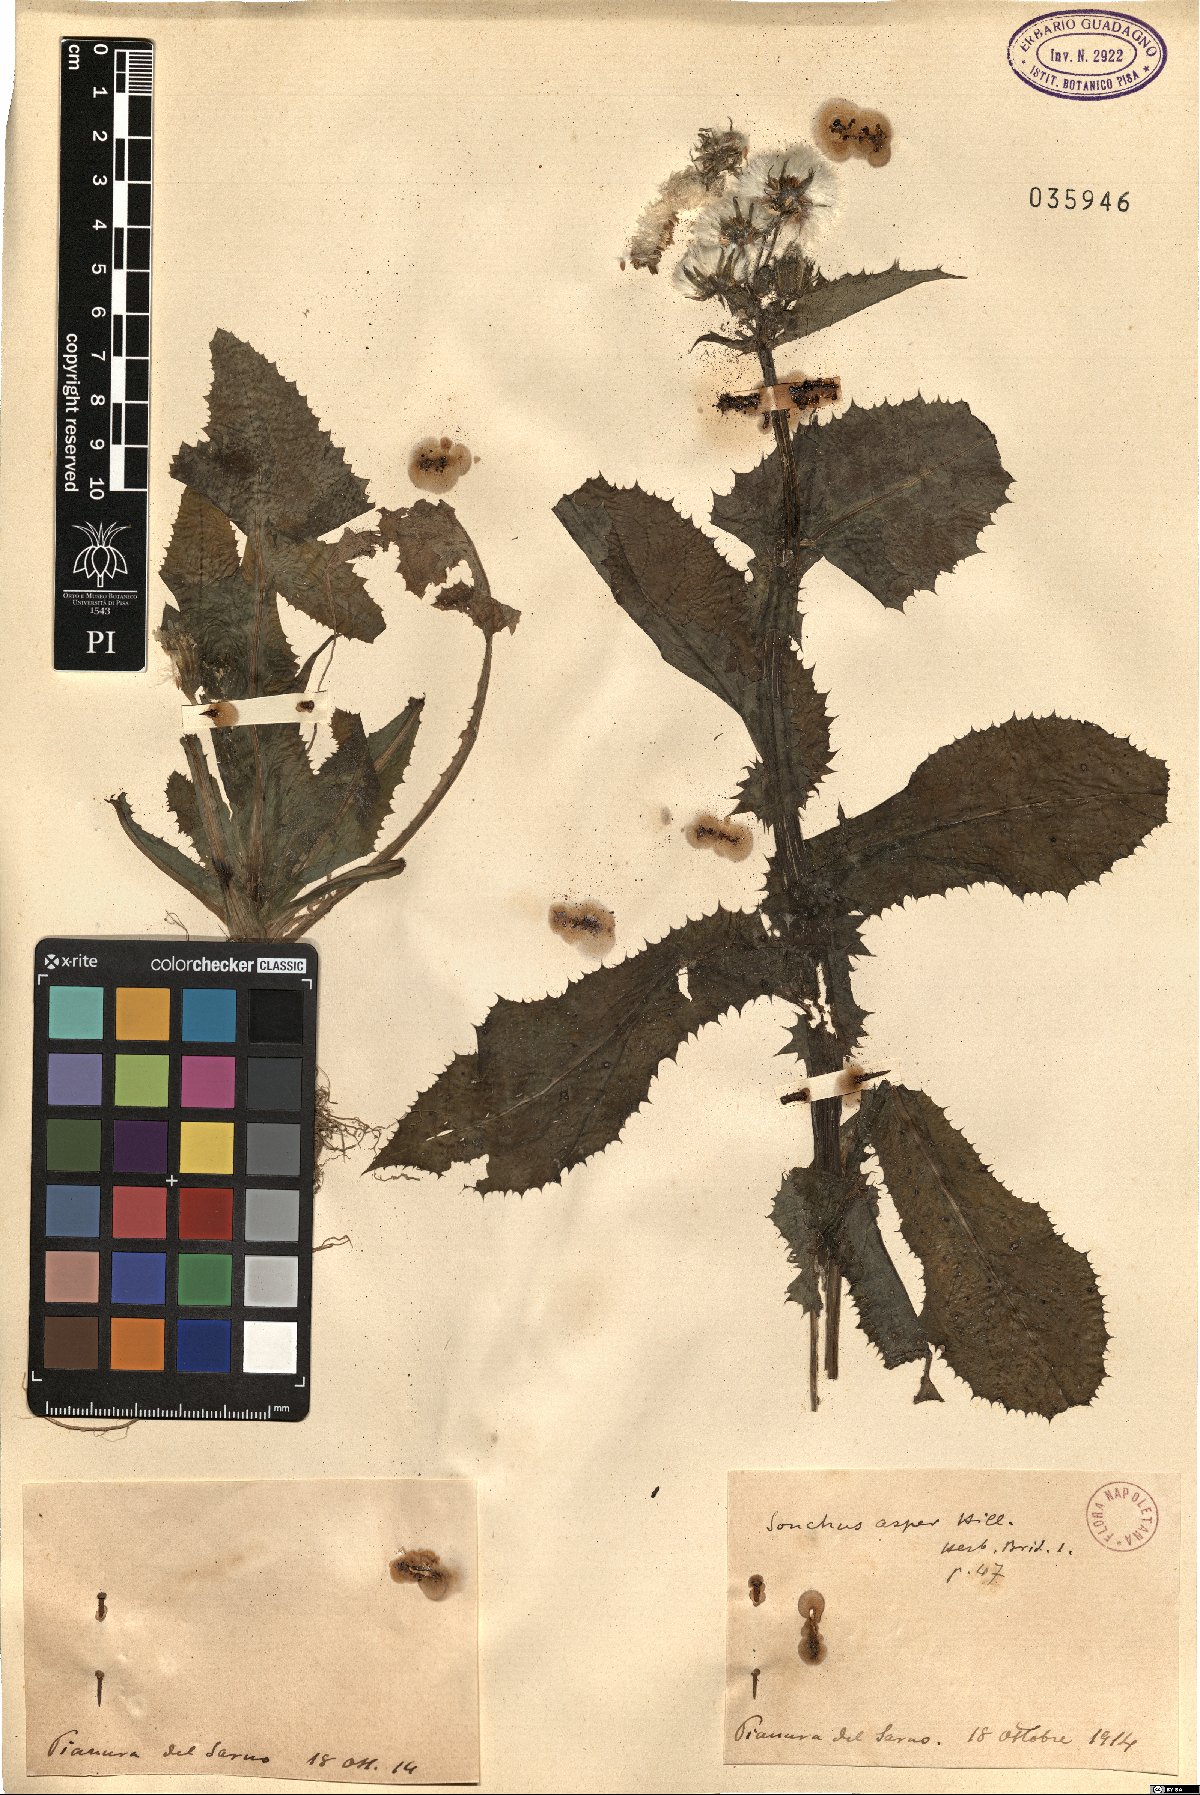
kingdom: Plantae
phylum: Tracheophyta
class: Magnoliopsida
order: Asterales
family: Asteraceae
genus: Sonchus
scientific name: Sonchus asper
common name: Prickly sow-thistle
